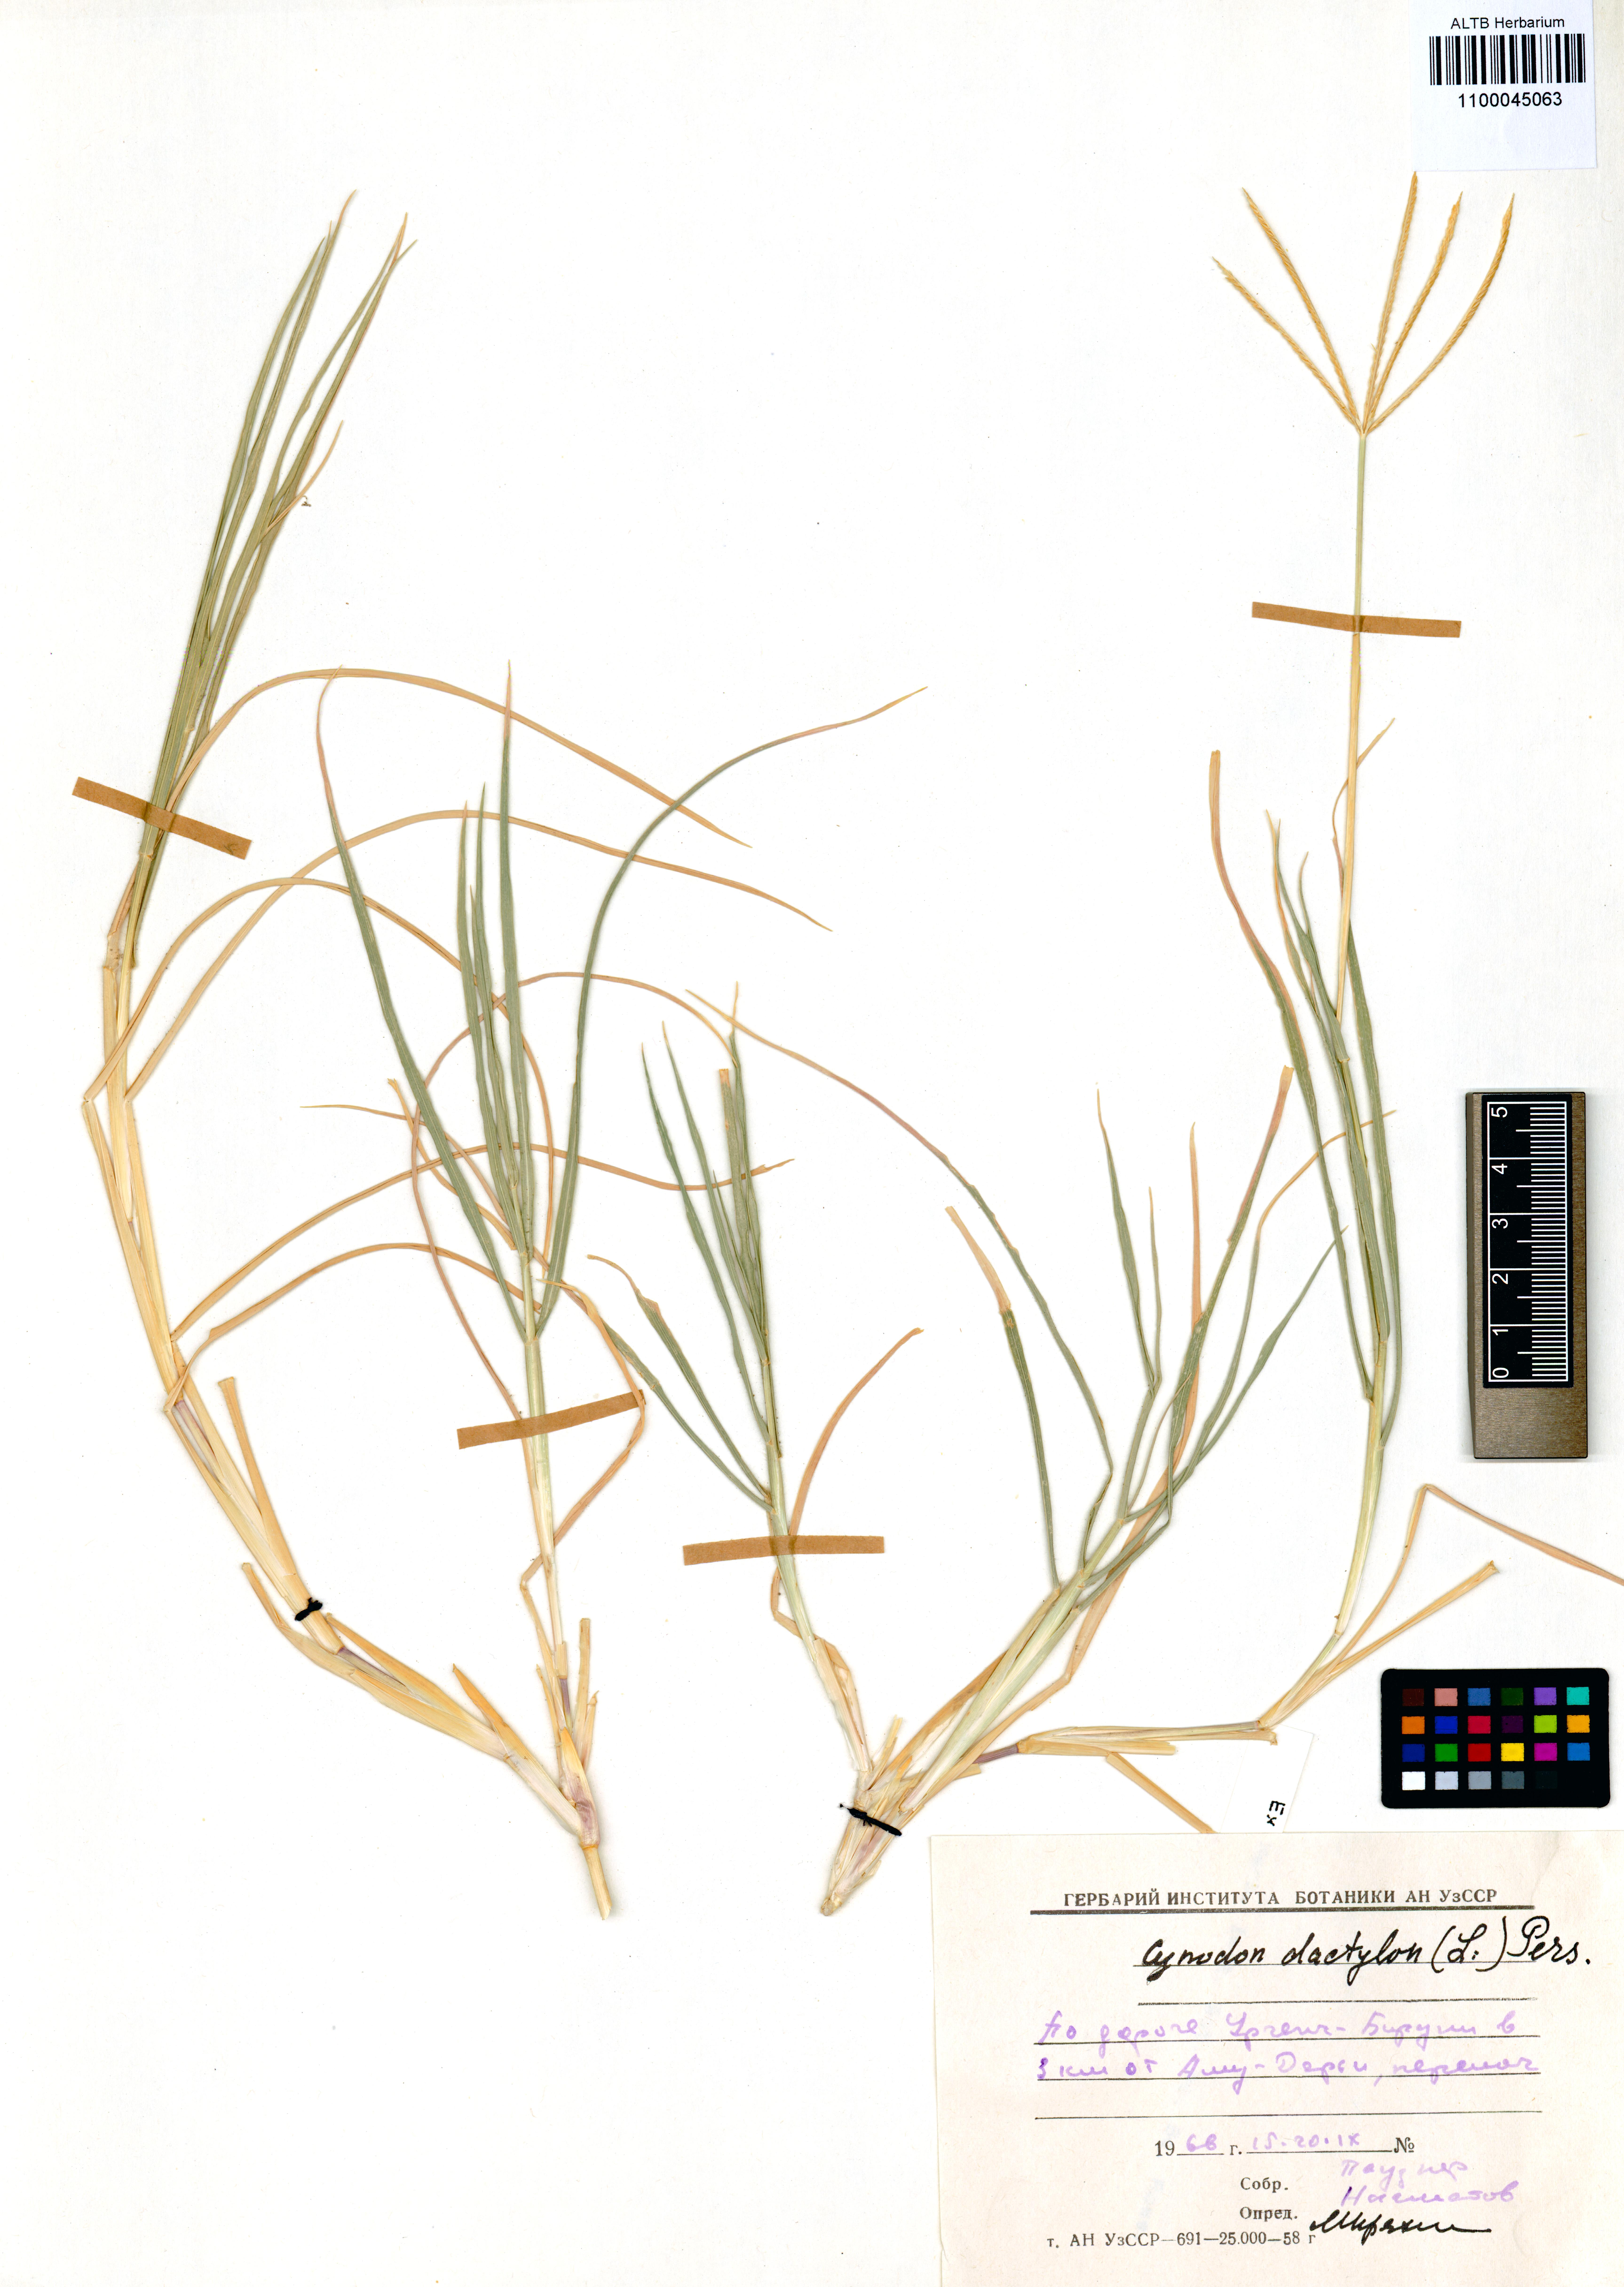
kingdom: Plantae
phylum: Tracheophyta
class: Liliopsida
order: Poales
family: Poaceae
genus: Cynodon
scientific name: Cynodon dactylon
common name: Bermuda grass
